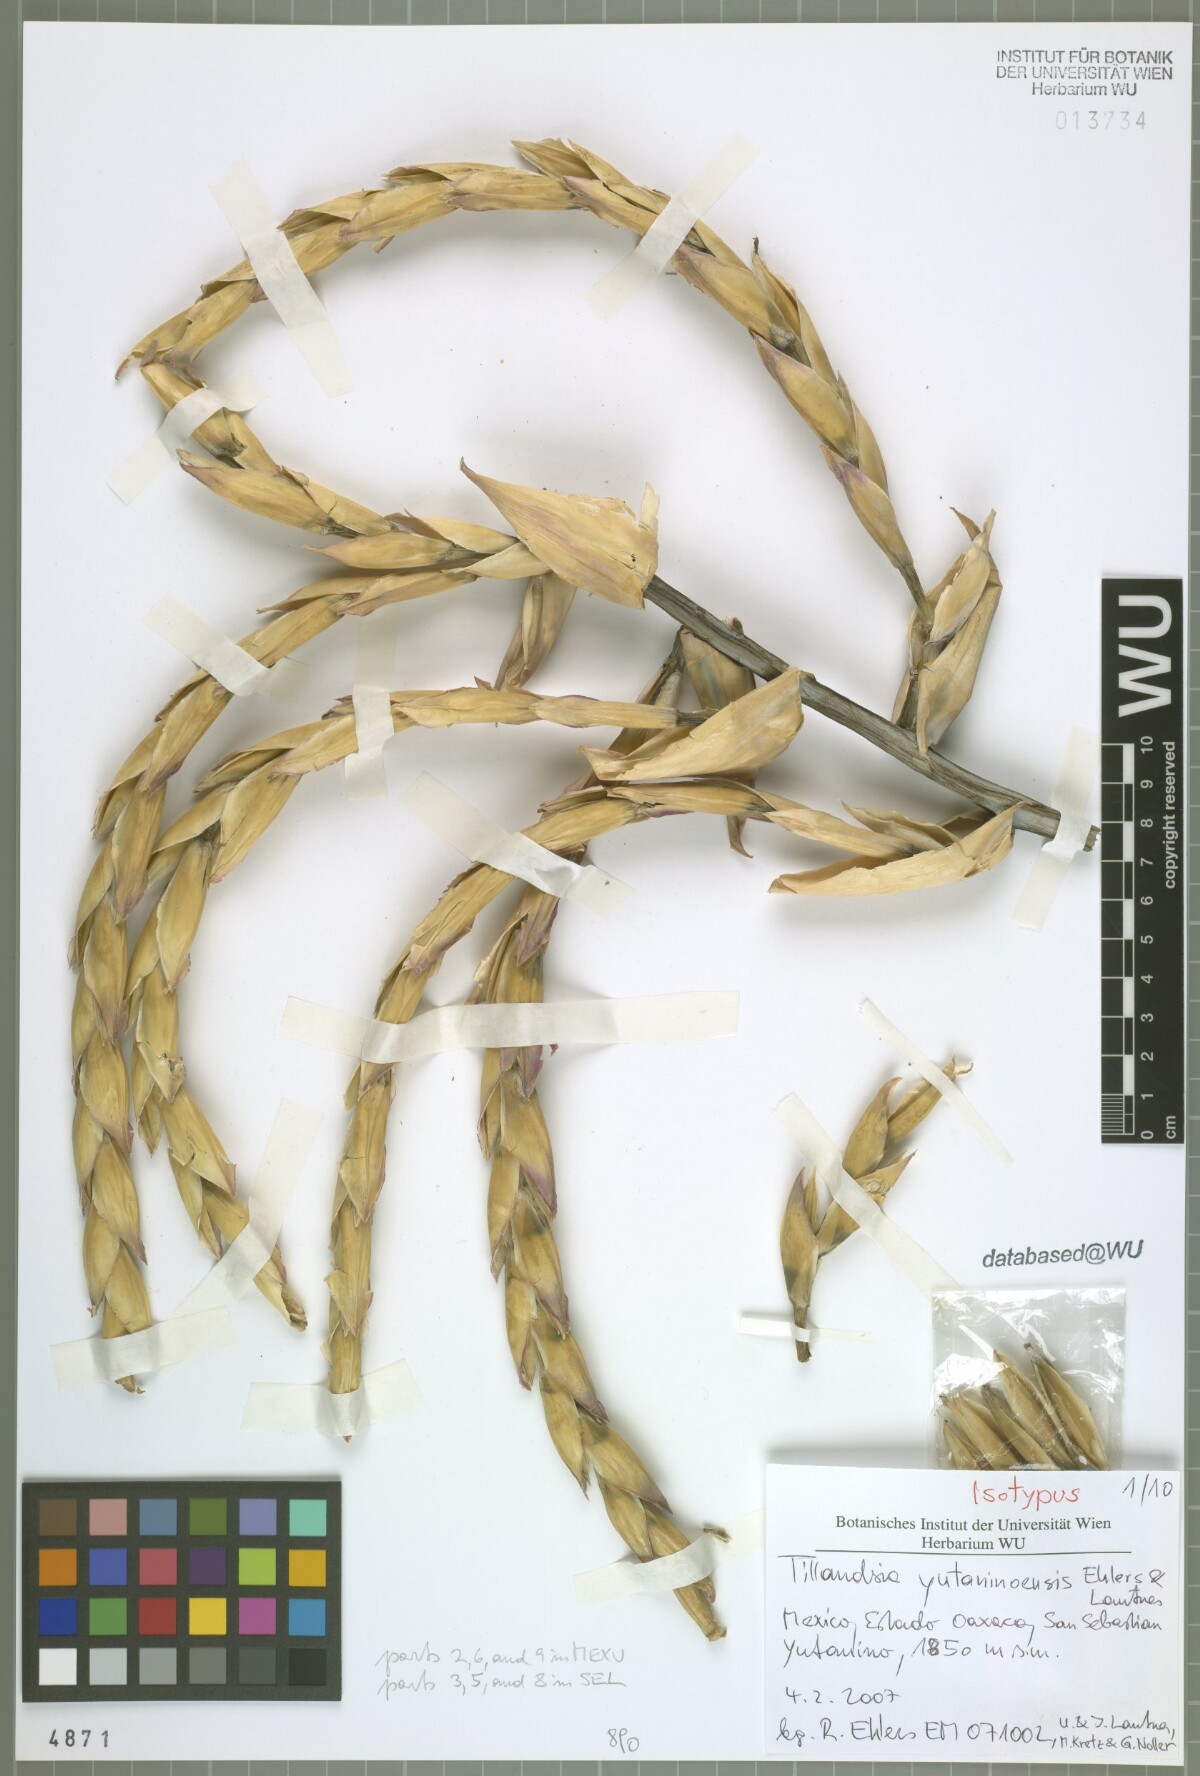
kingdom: Plantae
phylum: Tracheophyta
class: Liliopsida
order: Poales
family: Bromeliaceae
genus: Tillandsia
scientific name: Tillandsia yutaninoensis
